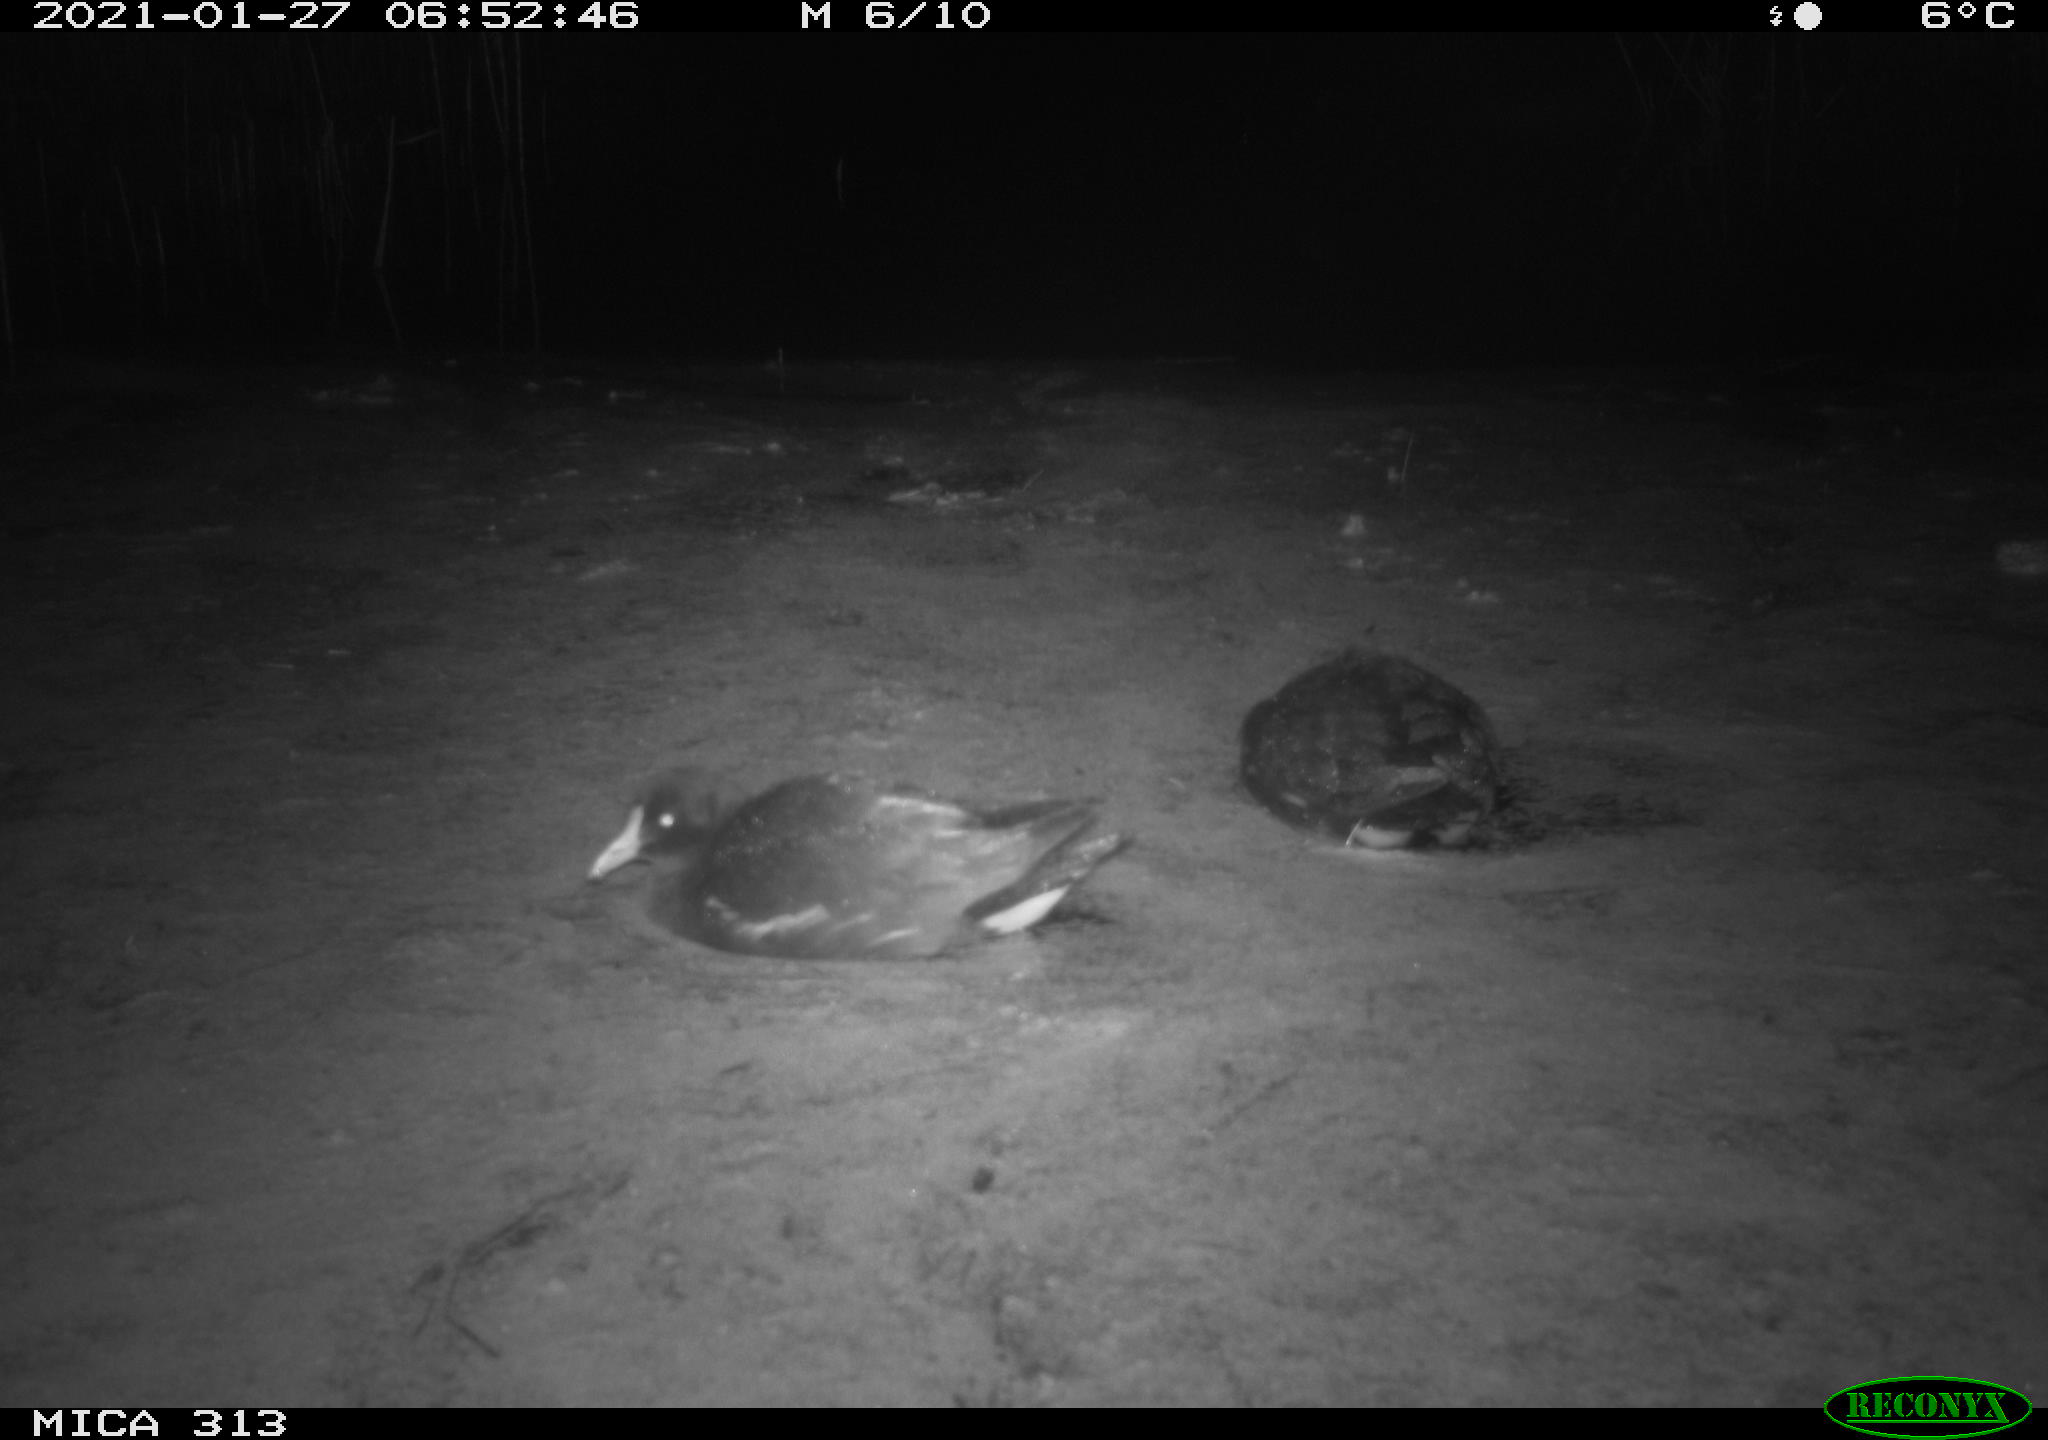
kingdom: Animalia
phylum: Chordata
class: Aves
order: Gruiformes
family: Rallidae
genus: Gallinula
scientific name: Gallinula chloropus
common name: Common moorhen
